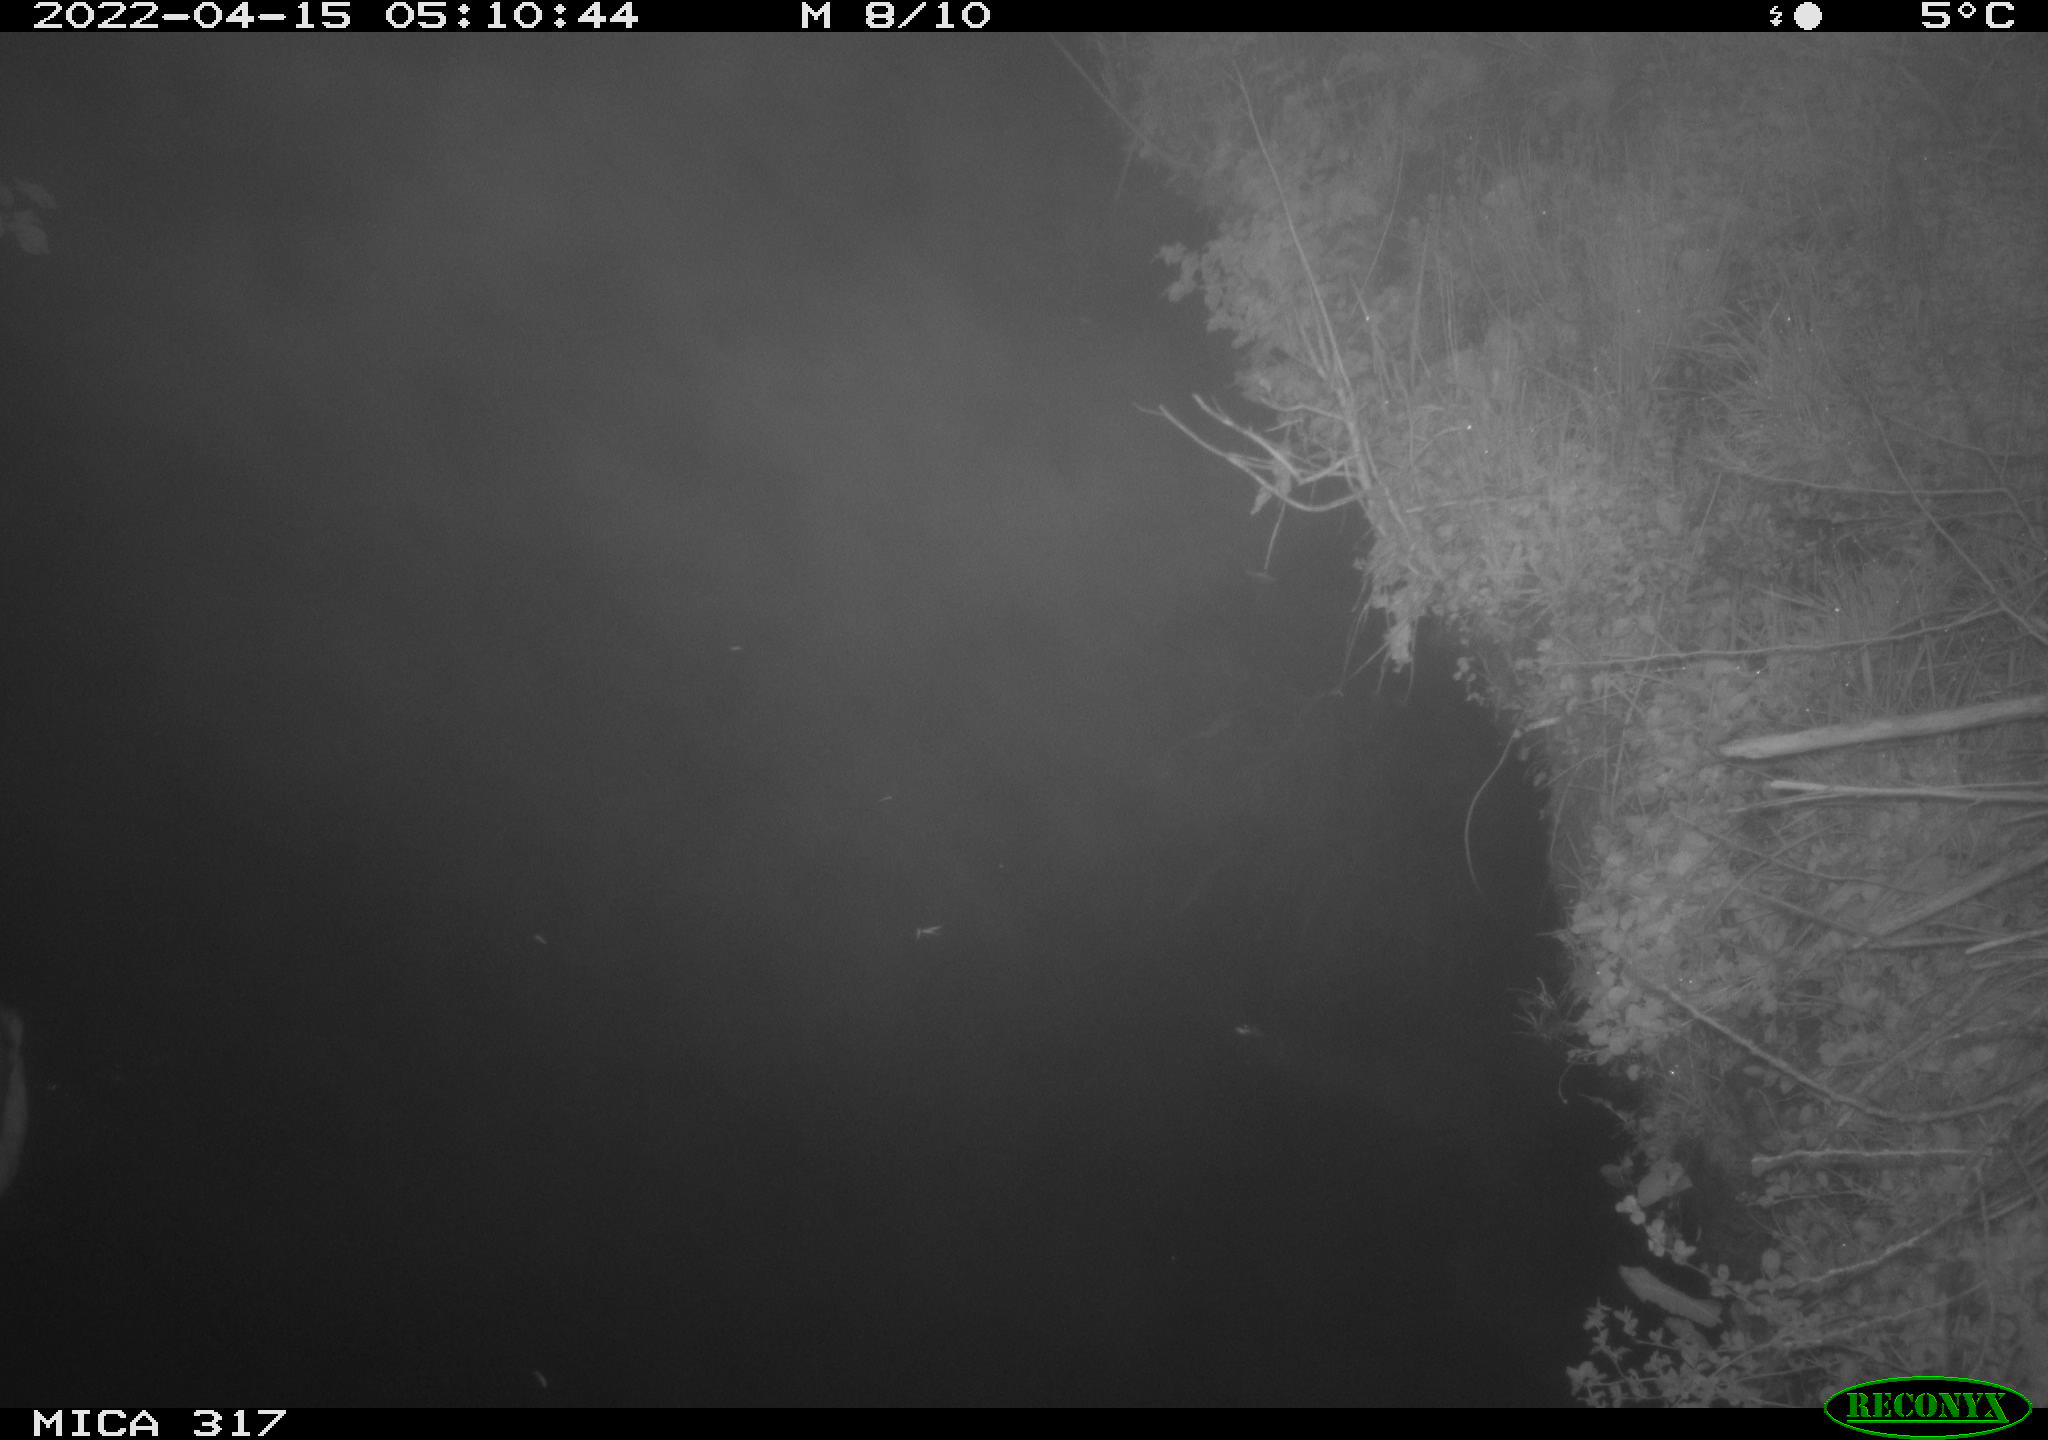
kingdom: Animalia
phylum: Chordata
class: Aves
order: Anseriformes
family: Anatidae
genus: Anas
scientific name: Anas platyrhynchos
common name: Mallard
